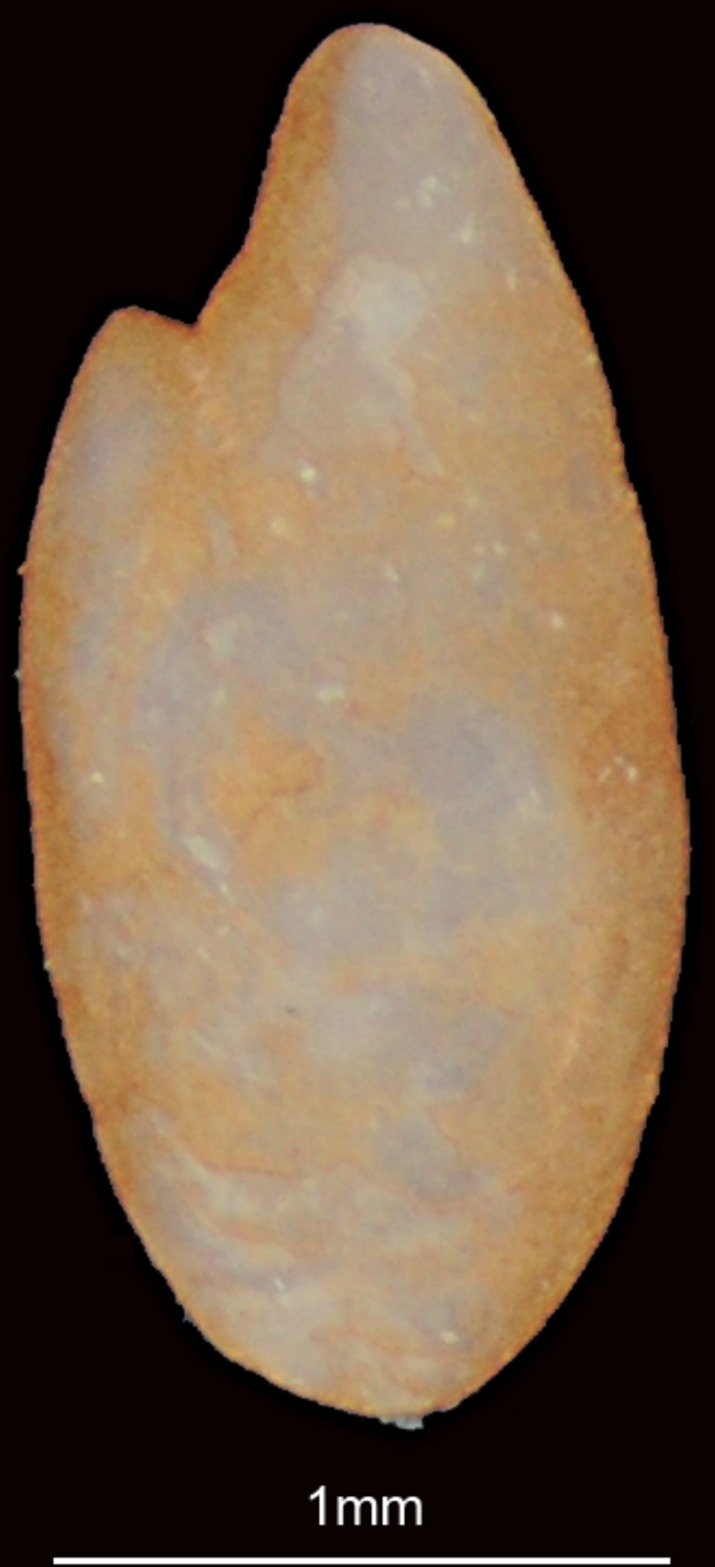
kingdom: Animalia
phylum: Chordata
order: Clupeiformes
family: Engraulidae
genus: Stolephorus
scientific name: Stolephorus commersonnii
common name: Commerson's anchovy
